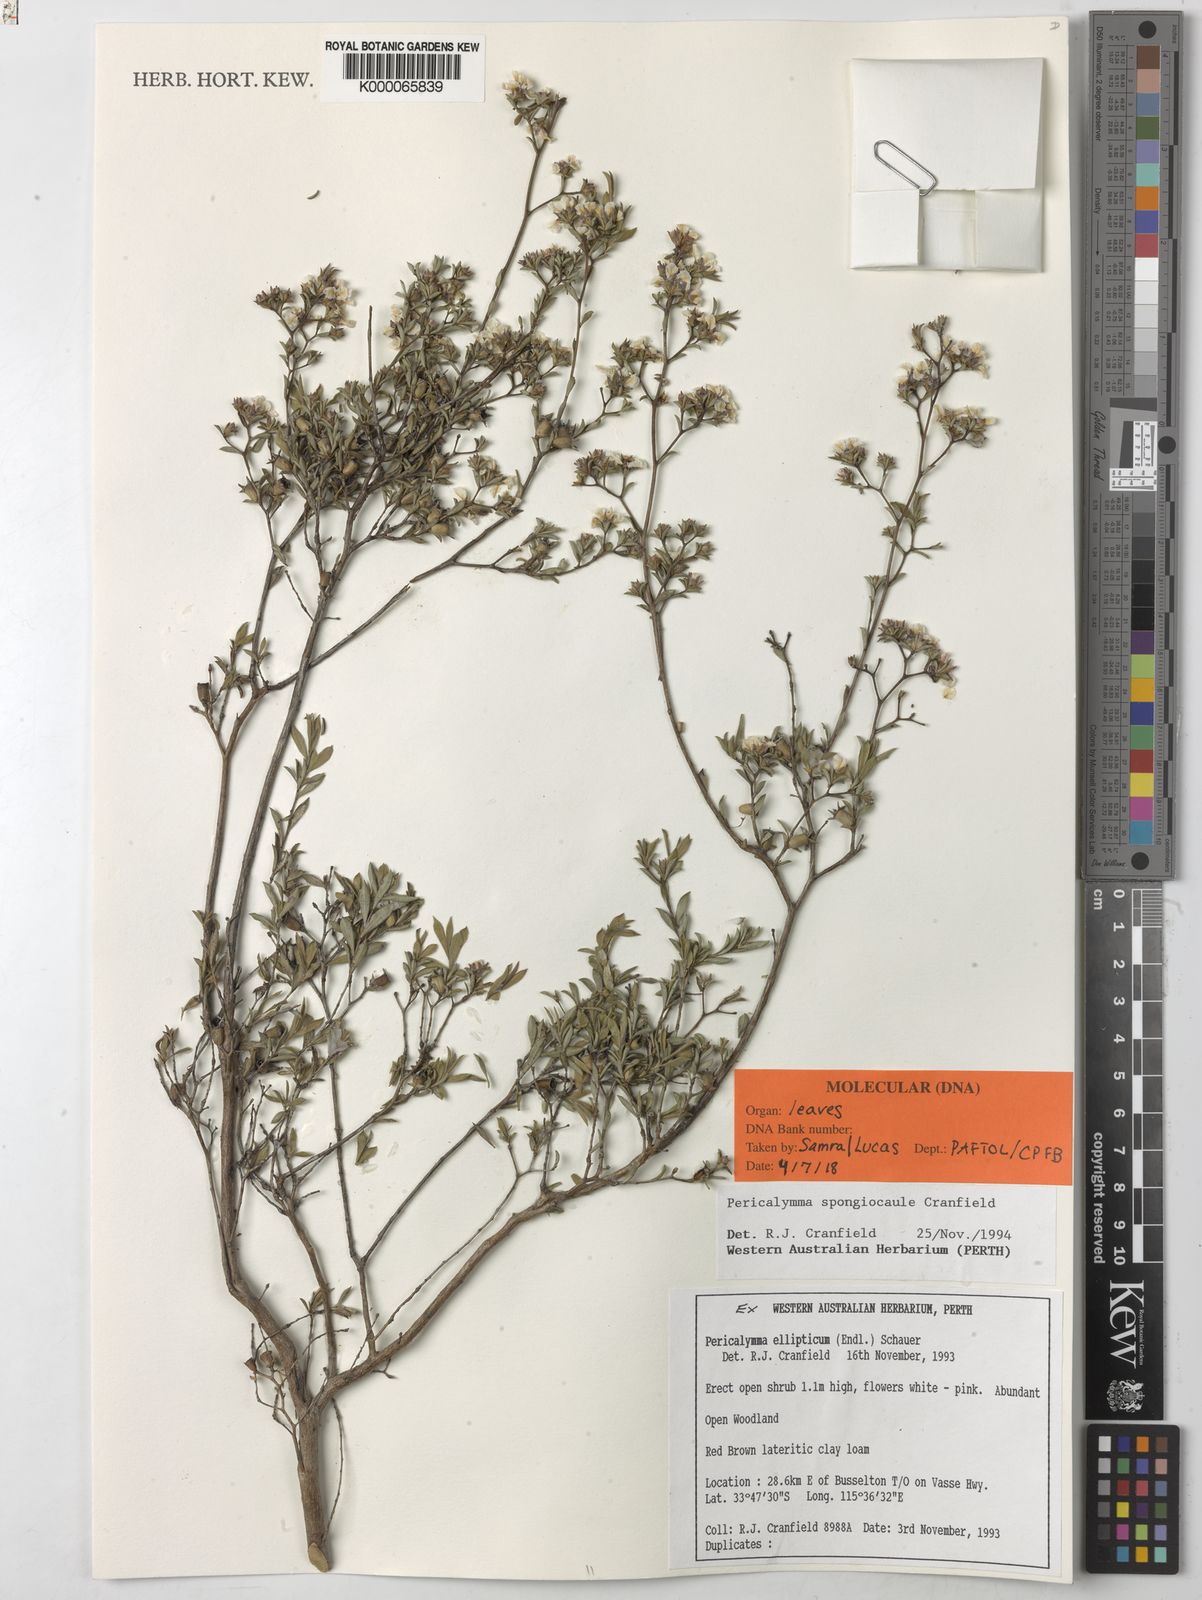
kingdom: Plantae
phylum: Tracheophyta
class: Magnoliopsida
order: Myrtales
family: Myrtaceae
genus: Pericalymma
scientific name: Pericalymma spongiocaule
